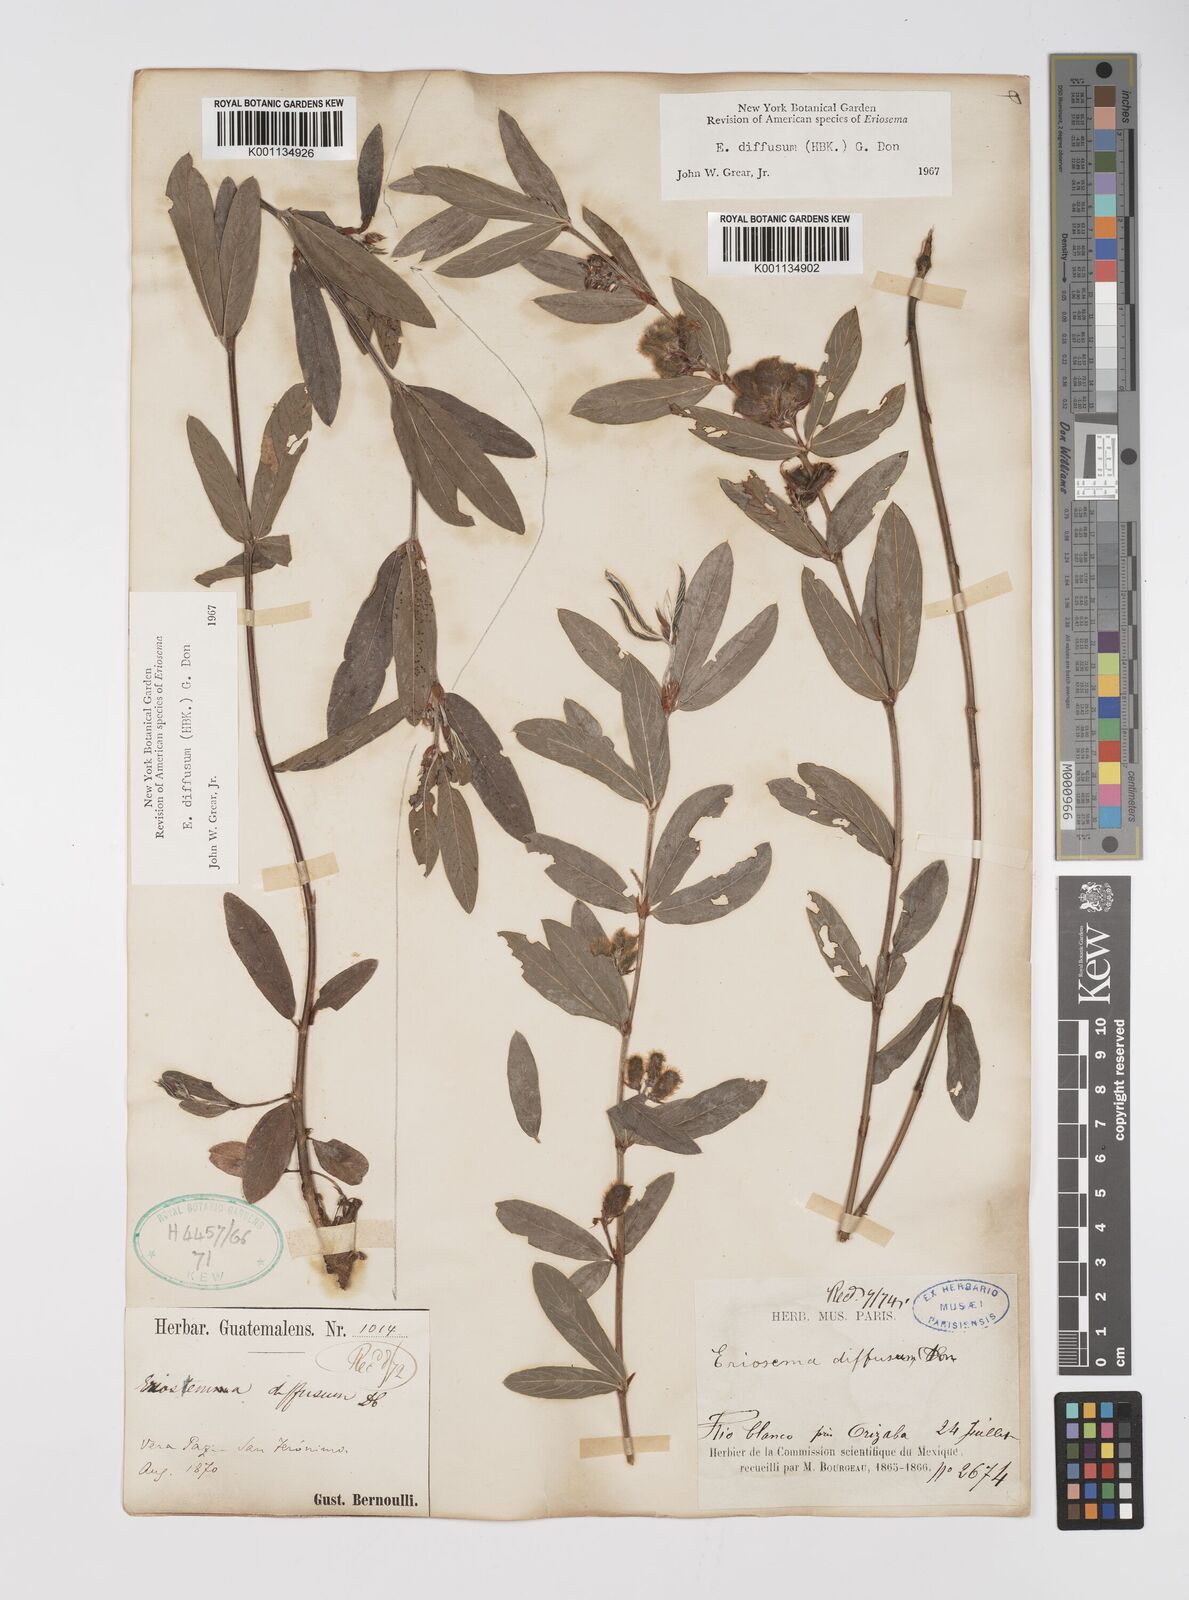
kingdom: Plantae
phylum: Tracheophyta
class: Magnoliopsida
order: Fabales
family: Fabaceae
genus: Eriosema
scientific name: Eriosema diffusum
